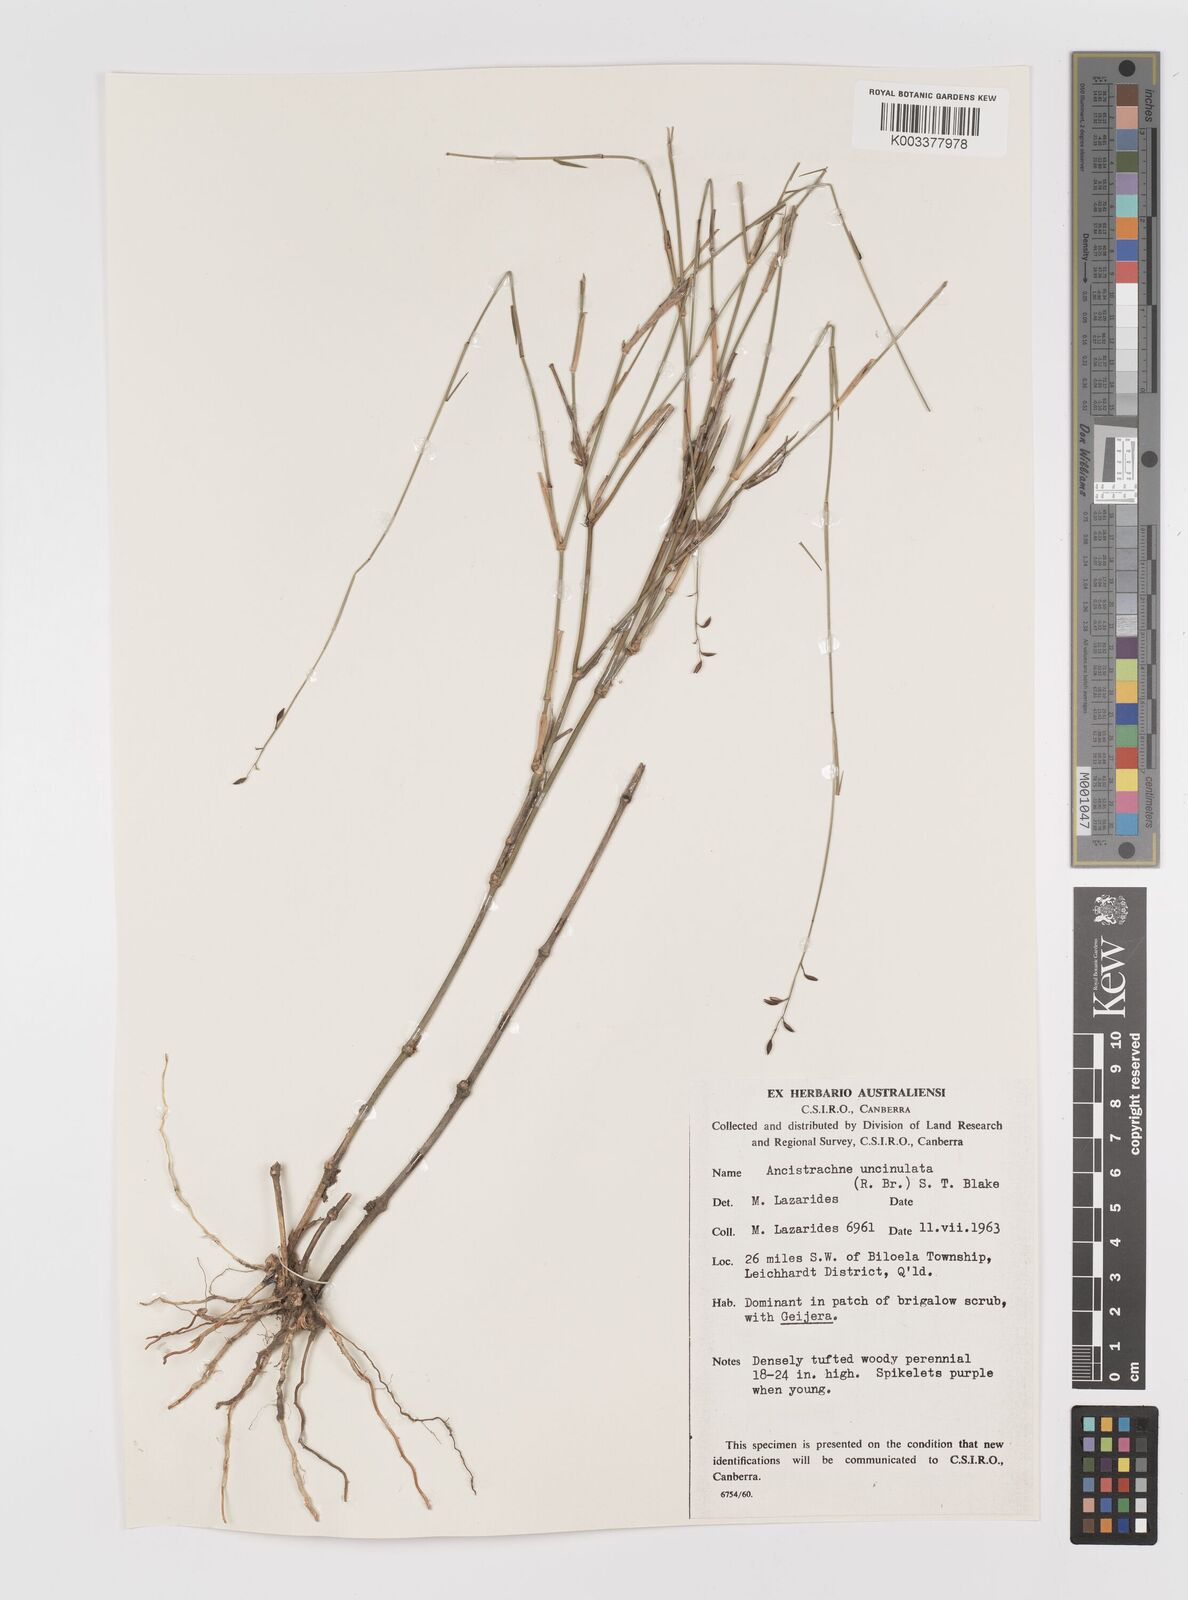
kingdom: Plantae
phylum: Tracheophyta
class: Liliopsida
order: Poales
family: Poaceae
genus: Ancistrachne
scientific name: Ancistrachne uncinulata
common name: Hooky grass
